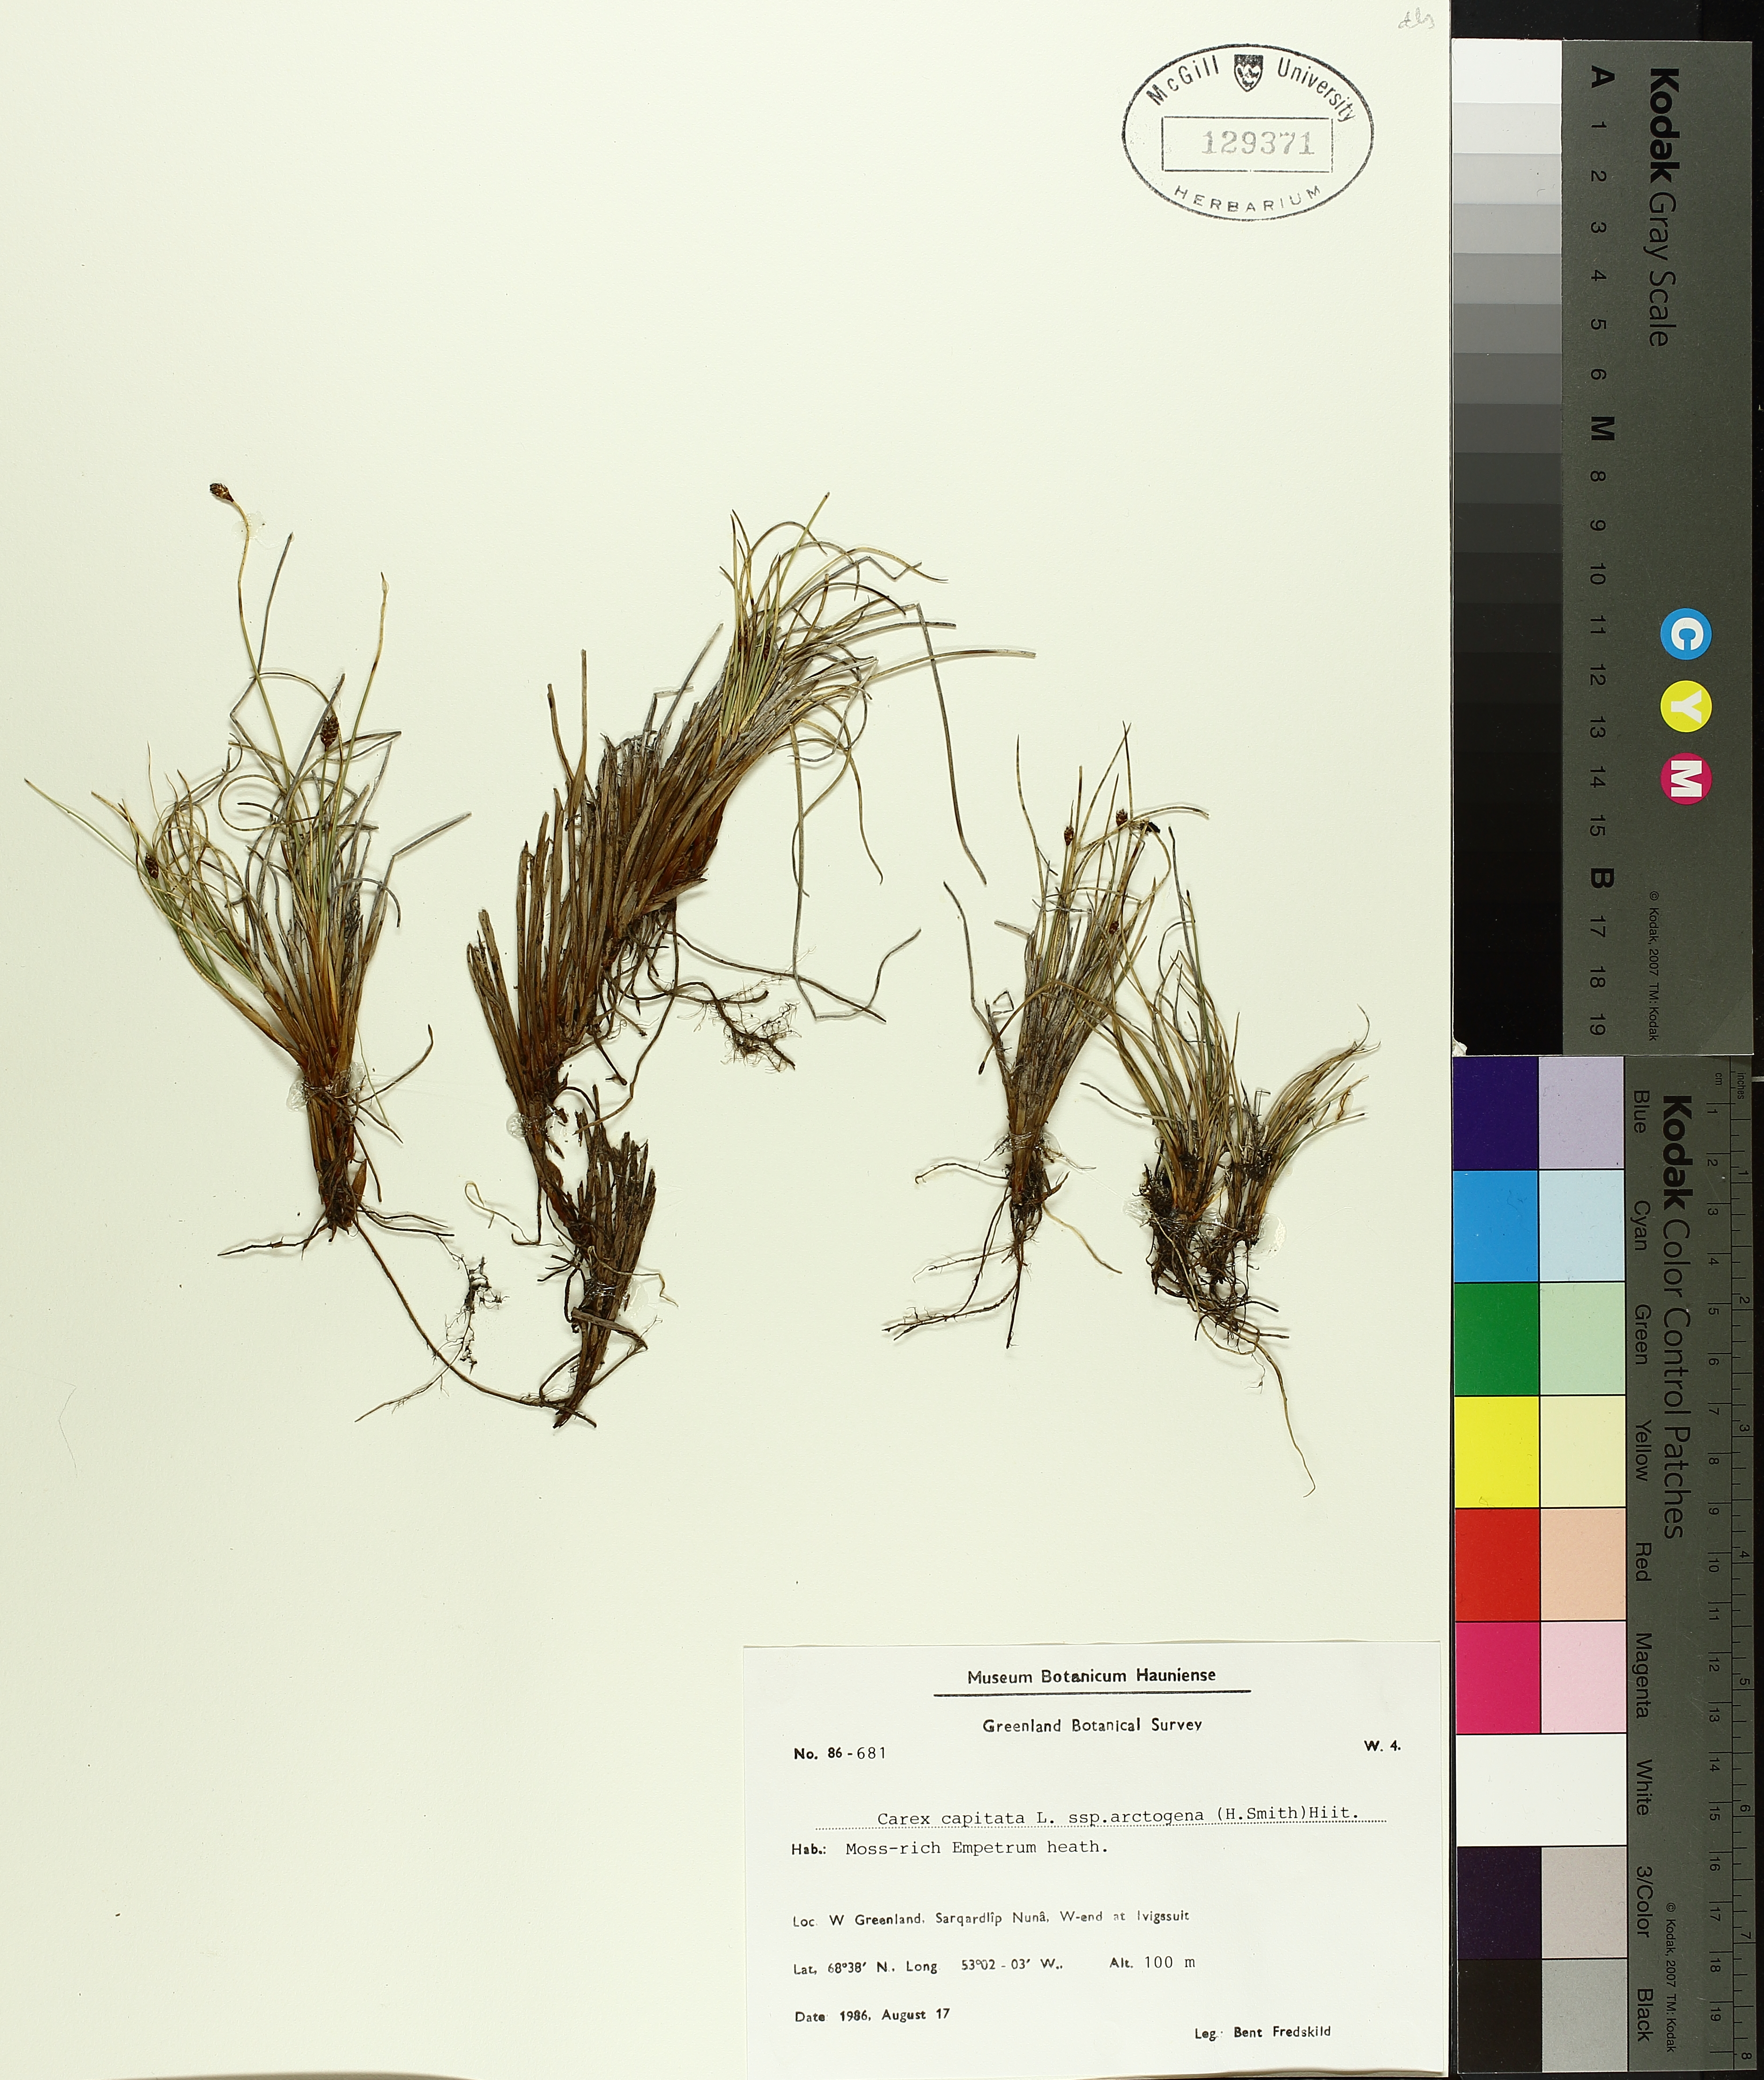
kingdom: Plantae
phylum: Tracheophyta
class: Liliopsida
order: Poales
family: Cyperaceae
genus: Carex
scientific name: Carex arctogena
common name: Black sedge
